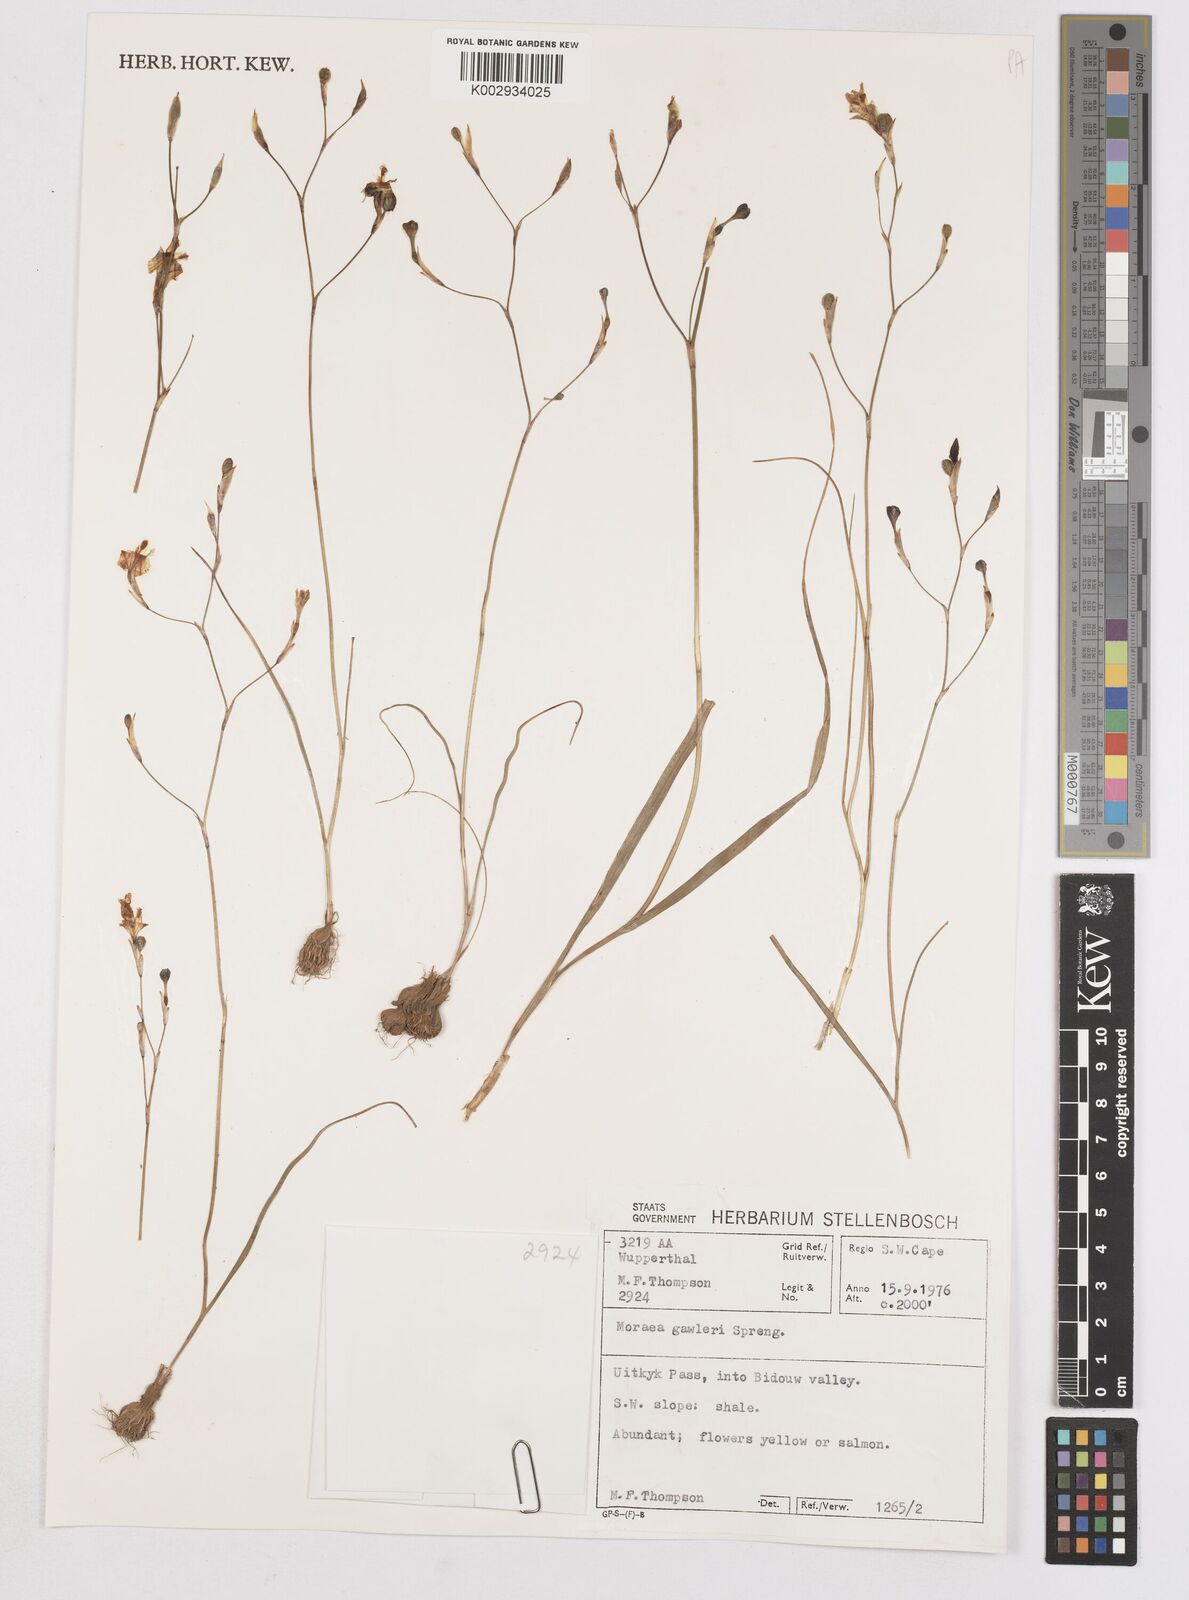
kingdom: Plantae
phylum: Tracheophyta
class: Liliopsida
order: Asparagales
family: Iridaceae
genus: Moraea
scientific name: Moraea gawleri
